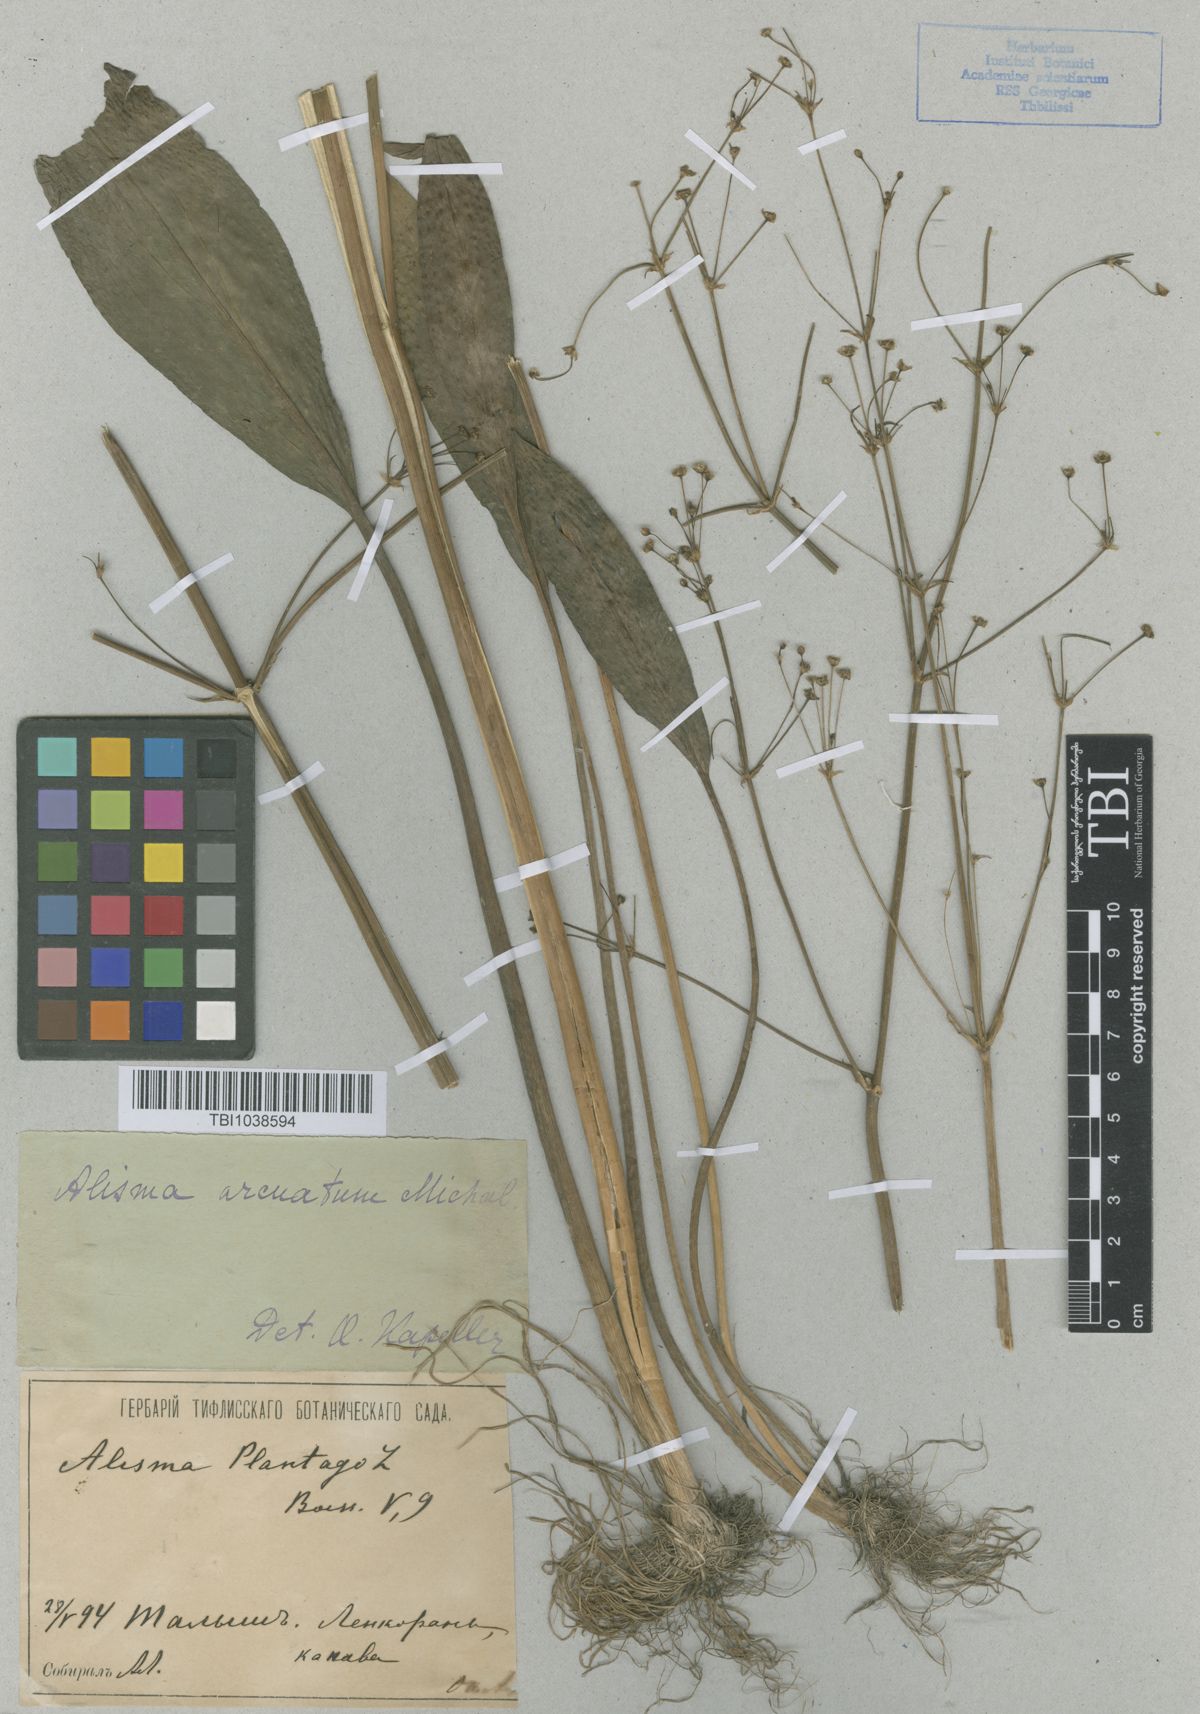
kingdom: Plantae
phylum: Tracheophyta
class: Liliopsida
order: Alismatales
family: Alismataceae
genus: Alisma
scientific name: Alisma gramineum
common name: Ribbon-leaved water-plantain
